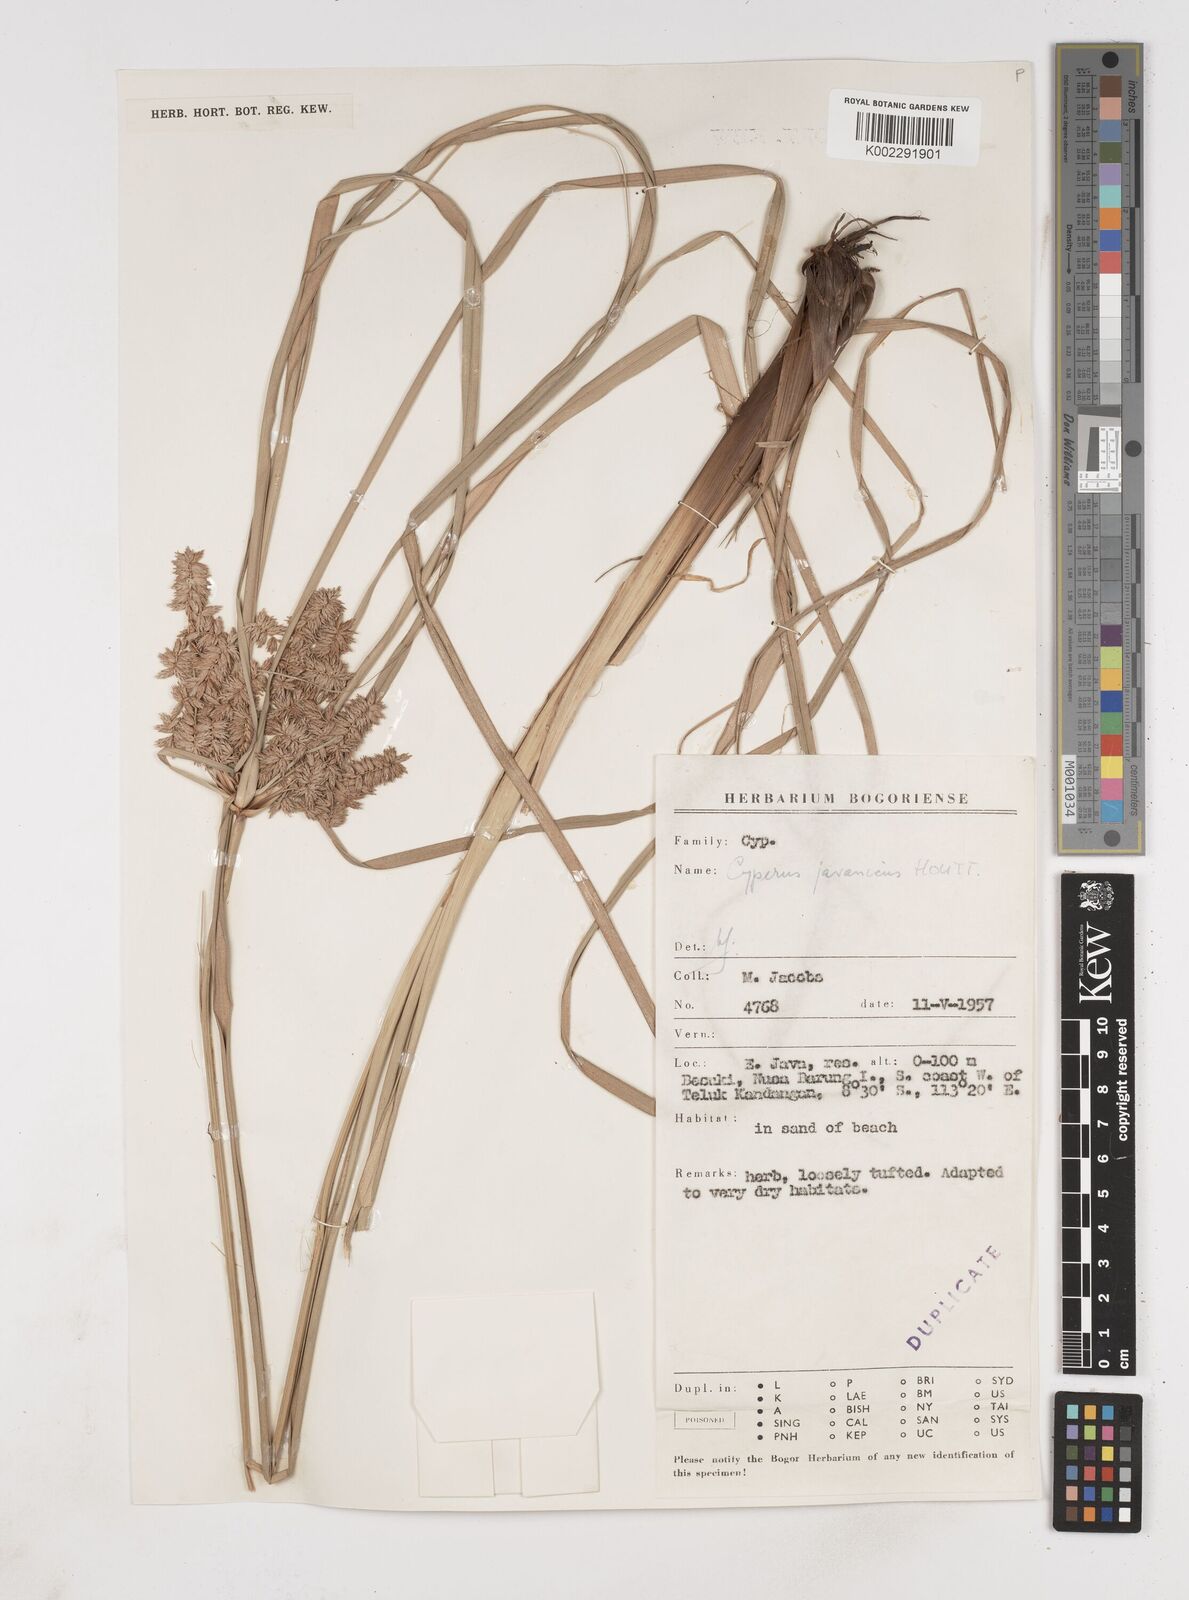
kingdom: Plantae
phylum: Tracheophyta
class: Liliopsida
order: Poales
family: Cyperaceae
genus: Cyperus
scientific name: Cyperus javanicus
